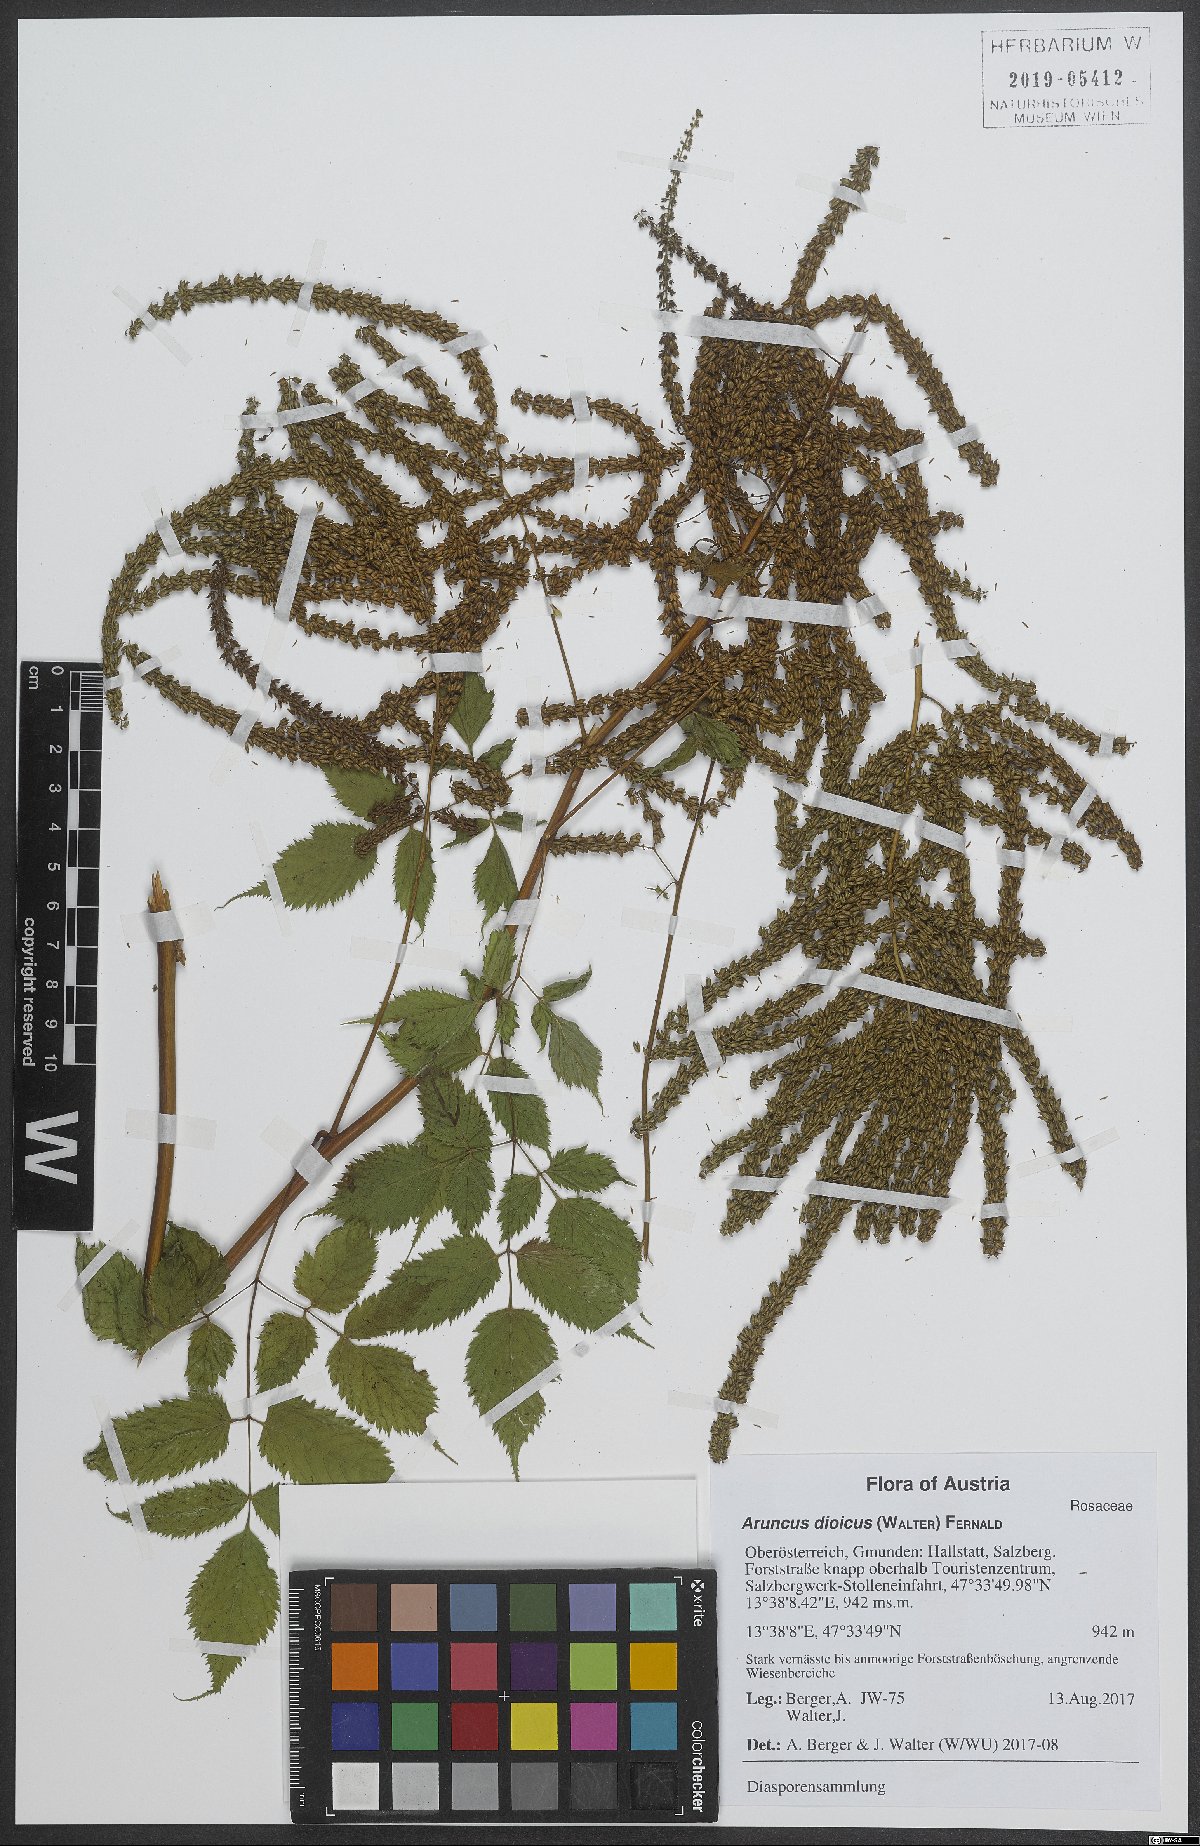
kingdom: Plantae
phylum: Tracheophyta
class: Magnoliopsida
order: Rosales
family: Rosaceae
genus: Aruncus
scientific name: Aruncus dioicus
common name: Buck's-beard
